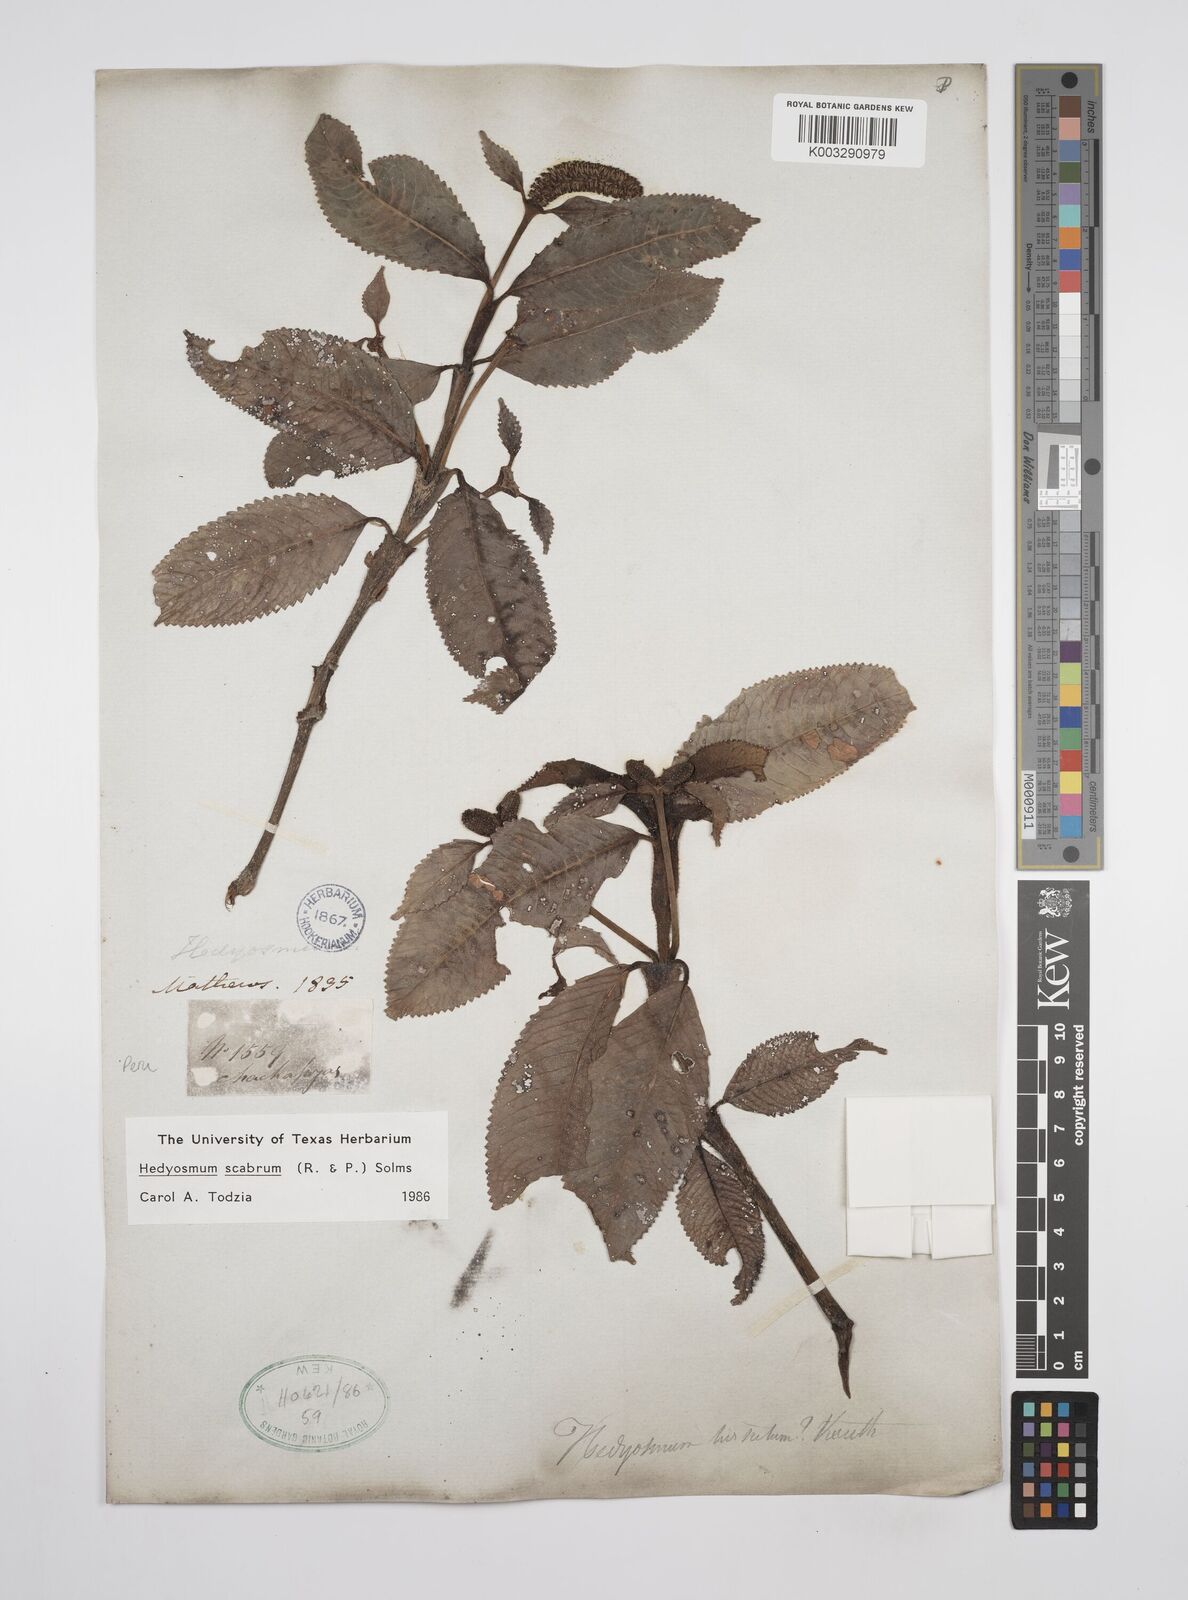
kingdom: Plantae
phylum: Tracheophyta
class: Magnoliopsida
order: Chloranthales
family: Chloranthaceae
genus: Hedyosmum
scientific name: Hedyosmum scabrum
